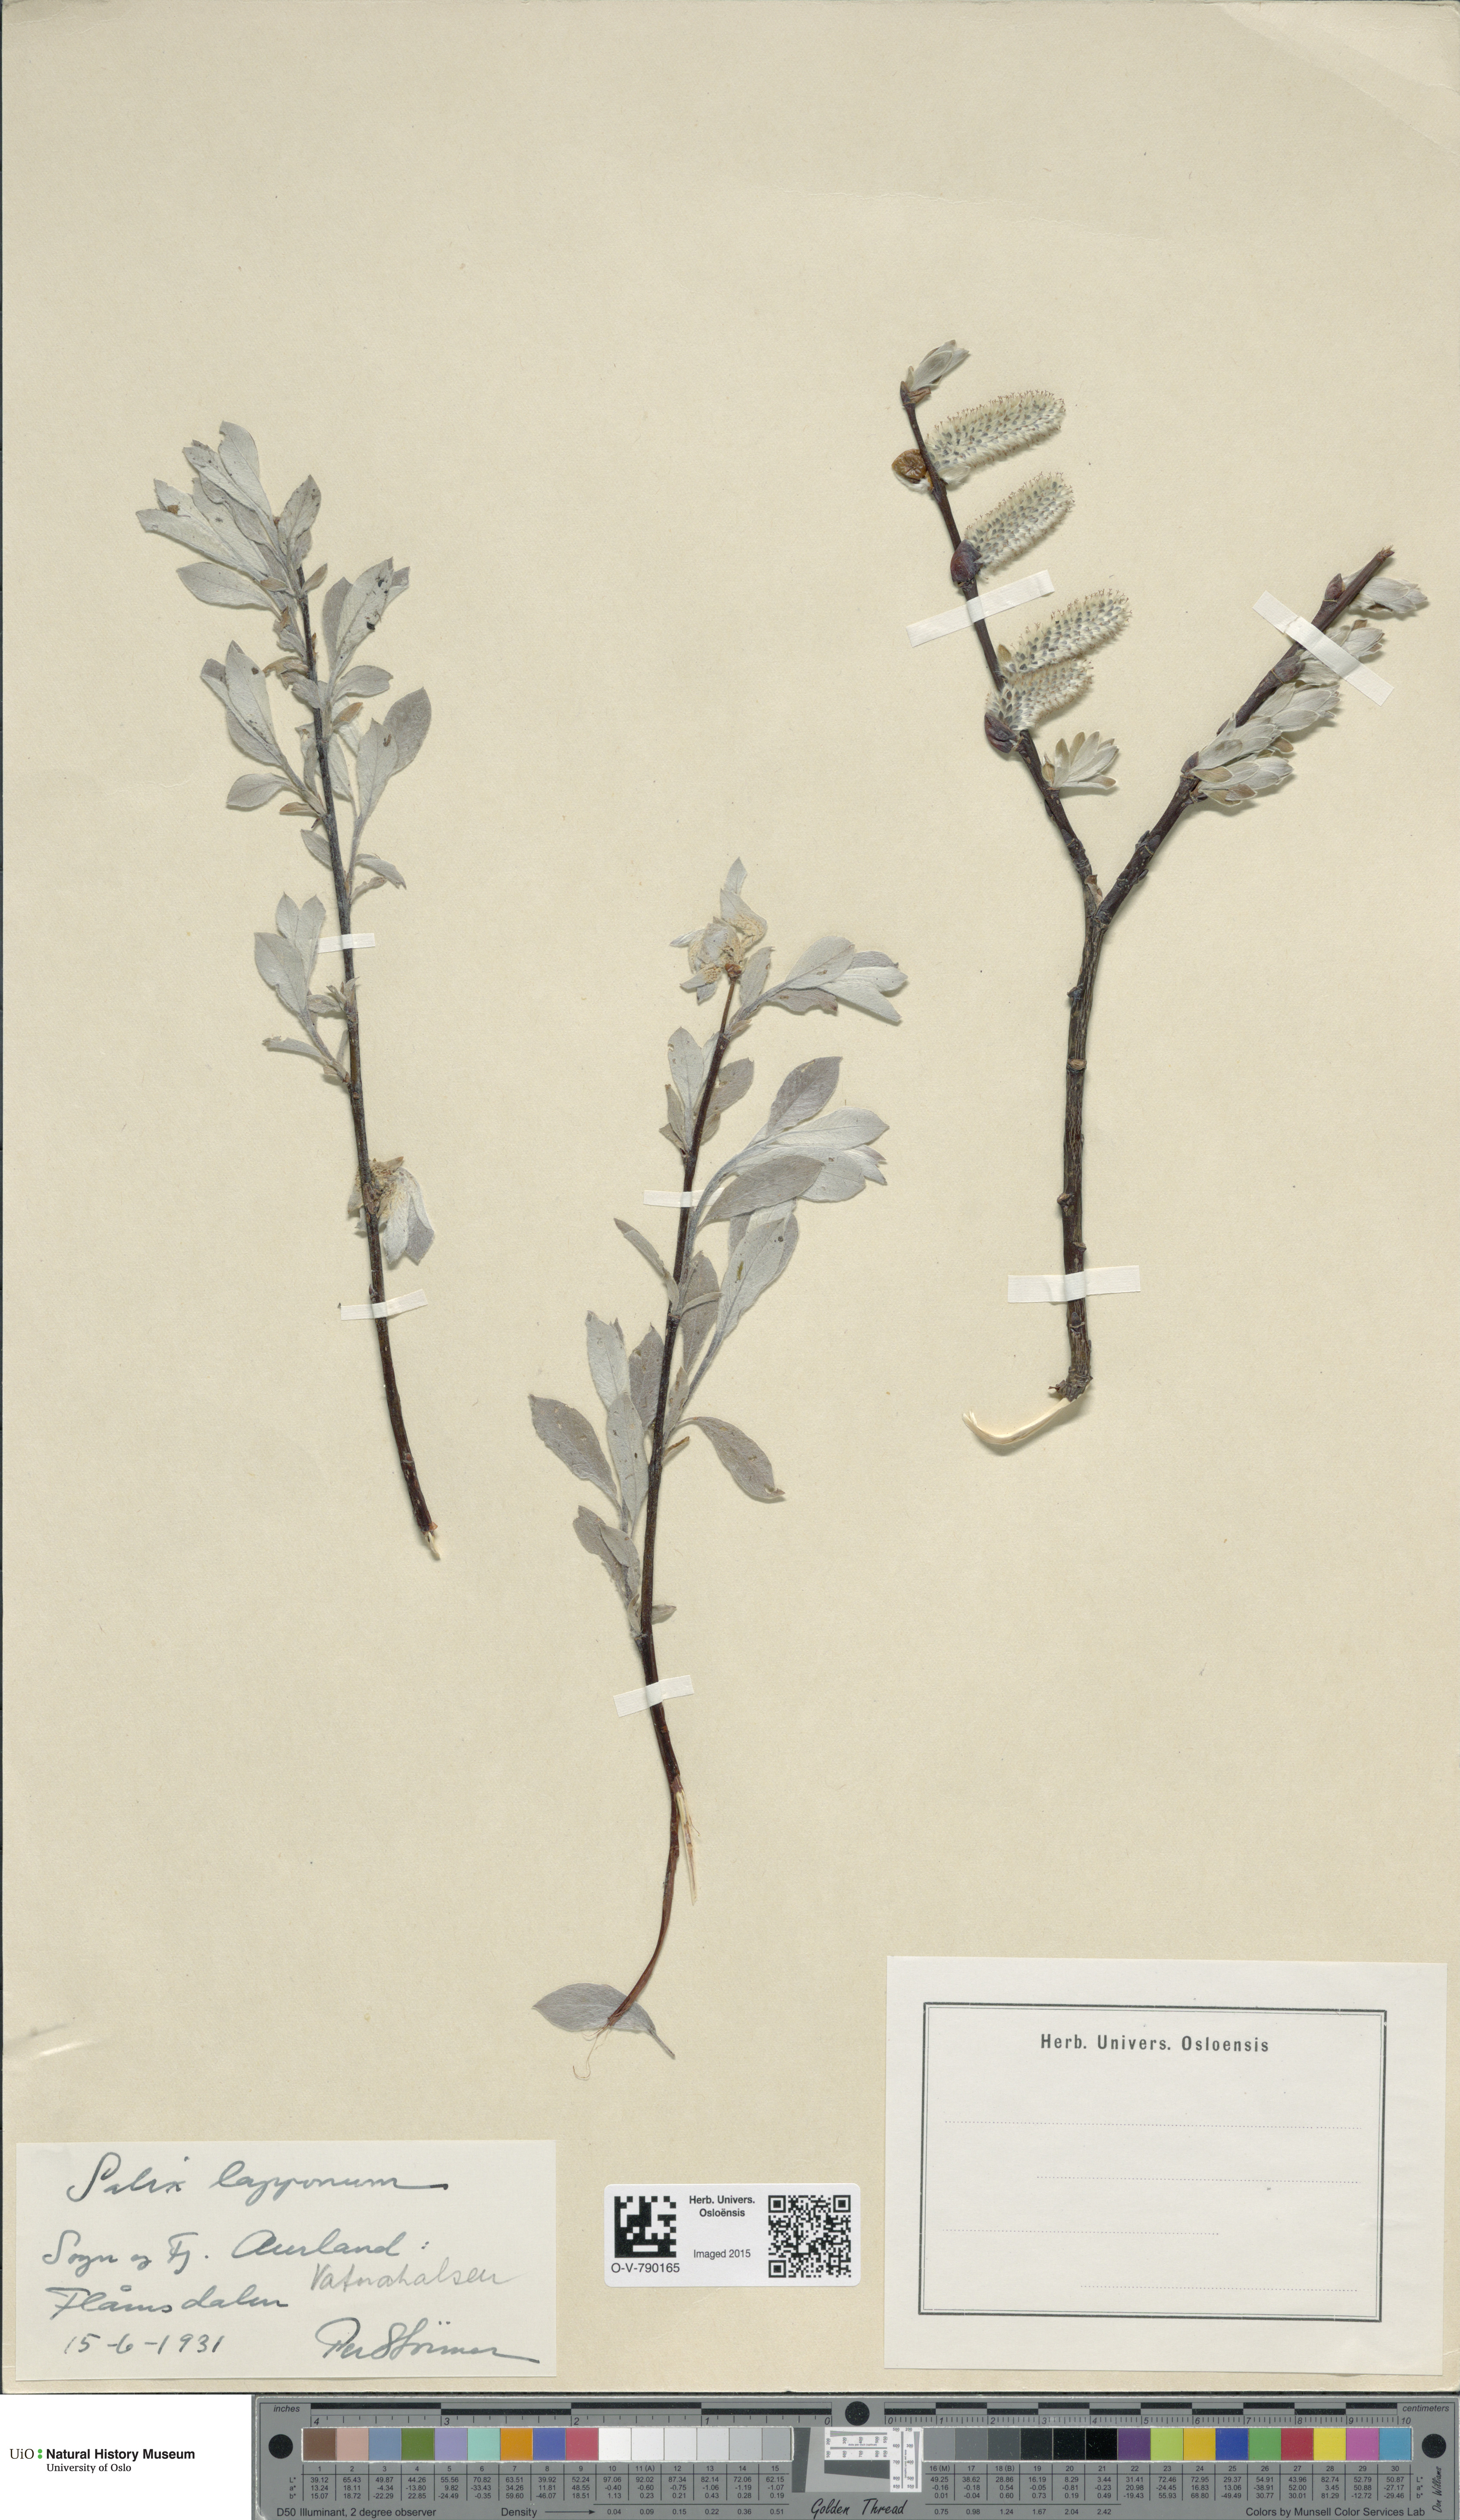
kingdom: Plantae
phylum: Tracheophyta
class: Magnoliopsida
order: Malpighiales
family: Salicaceae
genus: Salix
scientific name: Salix lapponum
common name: Downy willow
